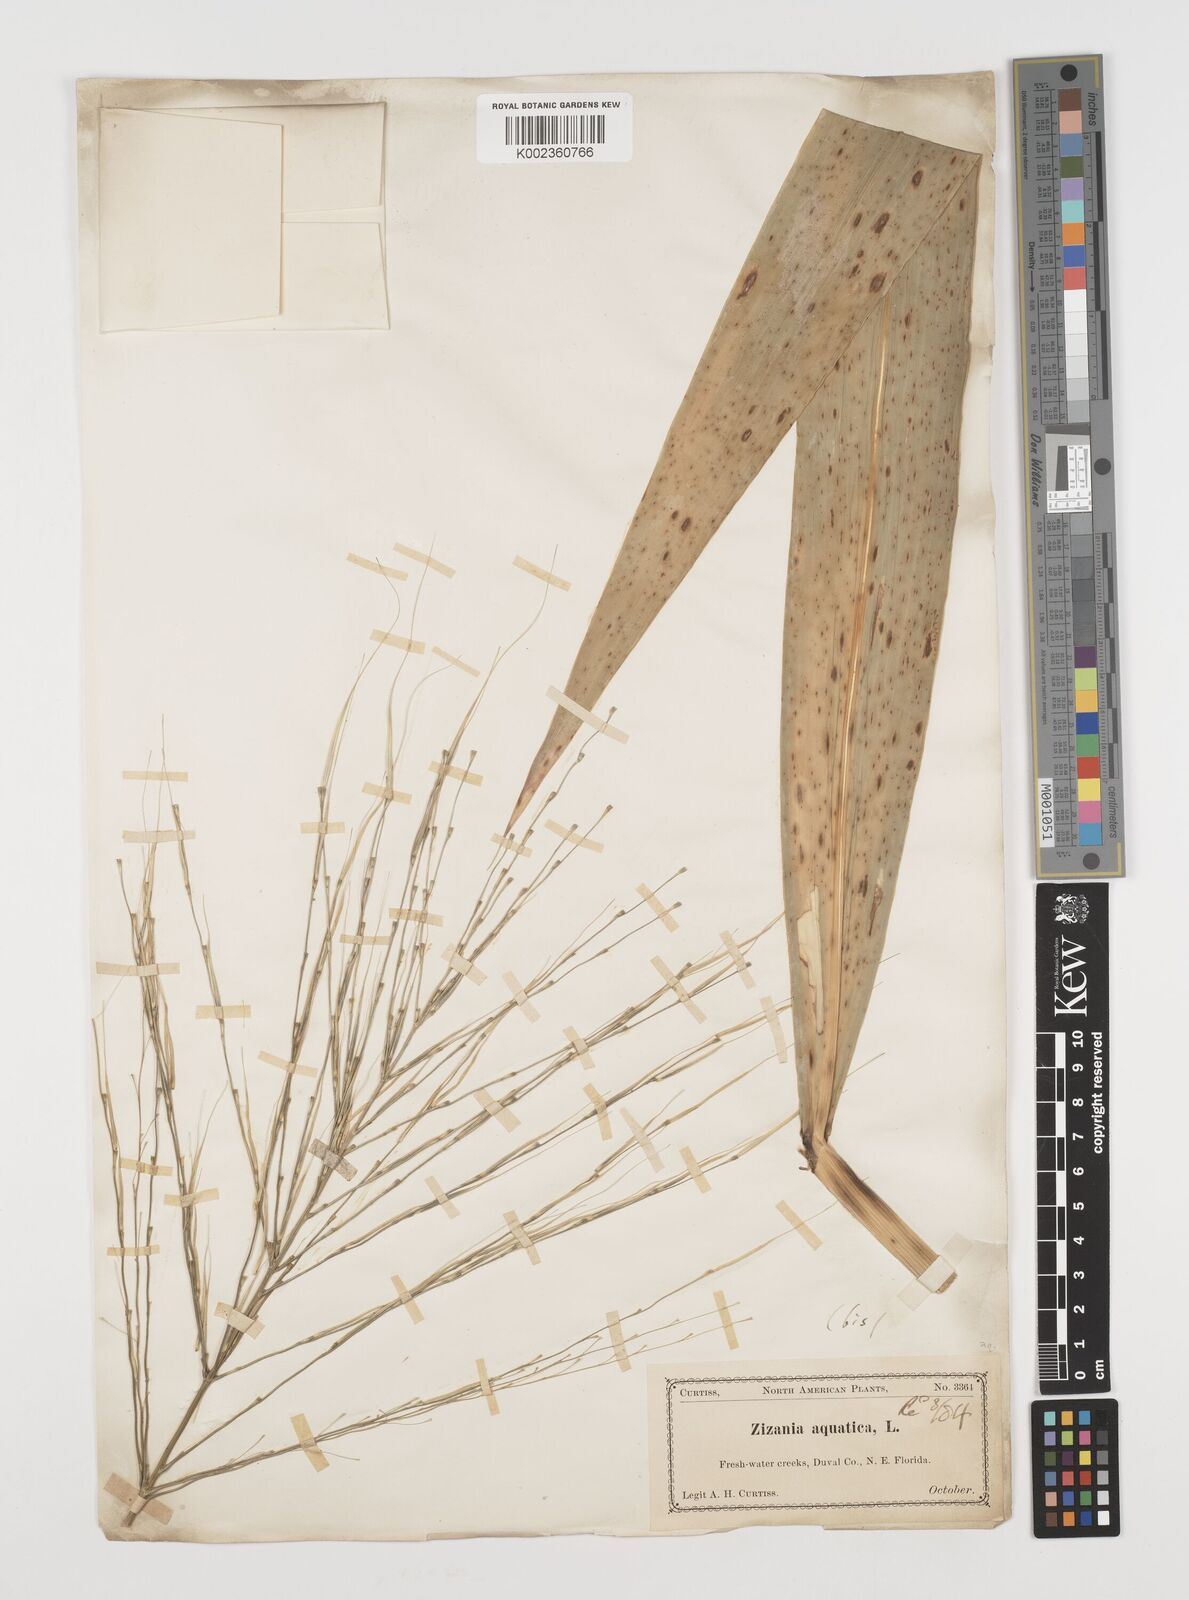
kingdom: Plantae
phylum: Tracheophyta
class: Liliopsida
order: Poales
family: Poaceae
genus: Zizania
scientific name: Zizania aquatica
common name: Annual wildrice
